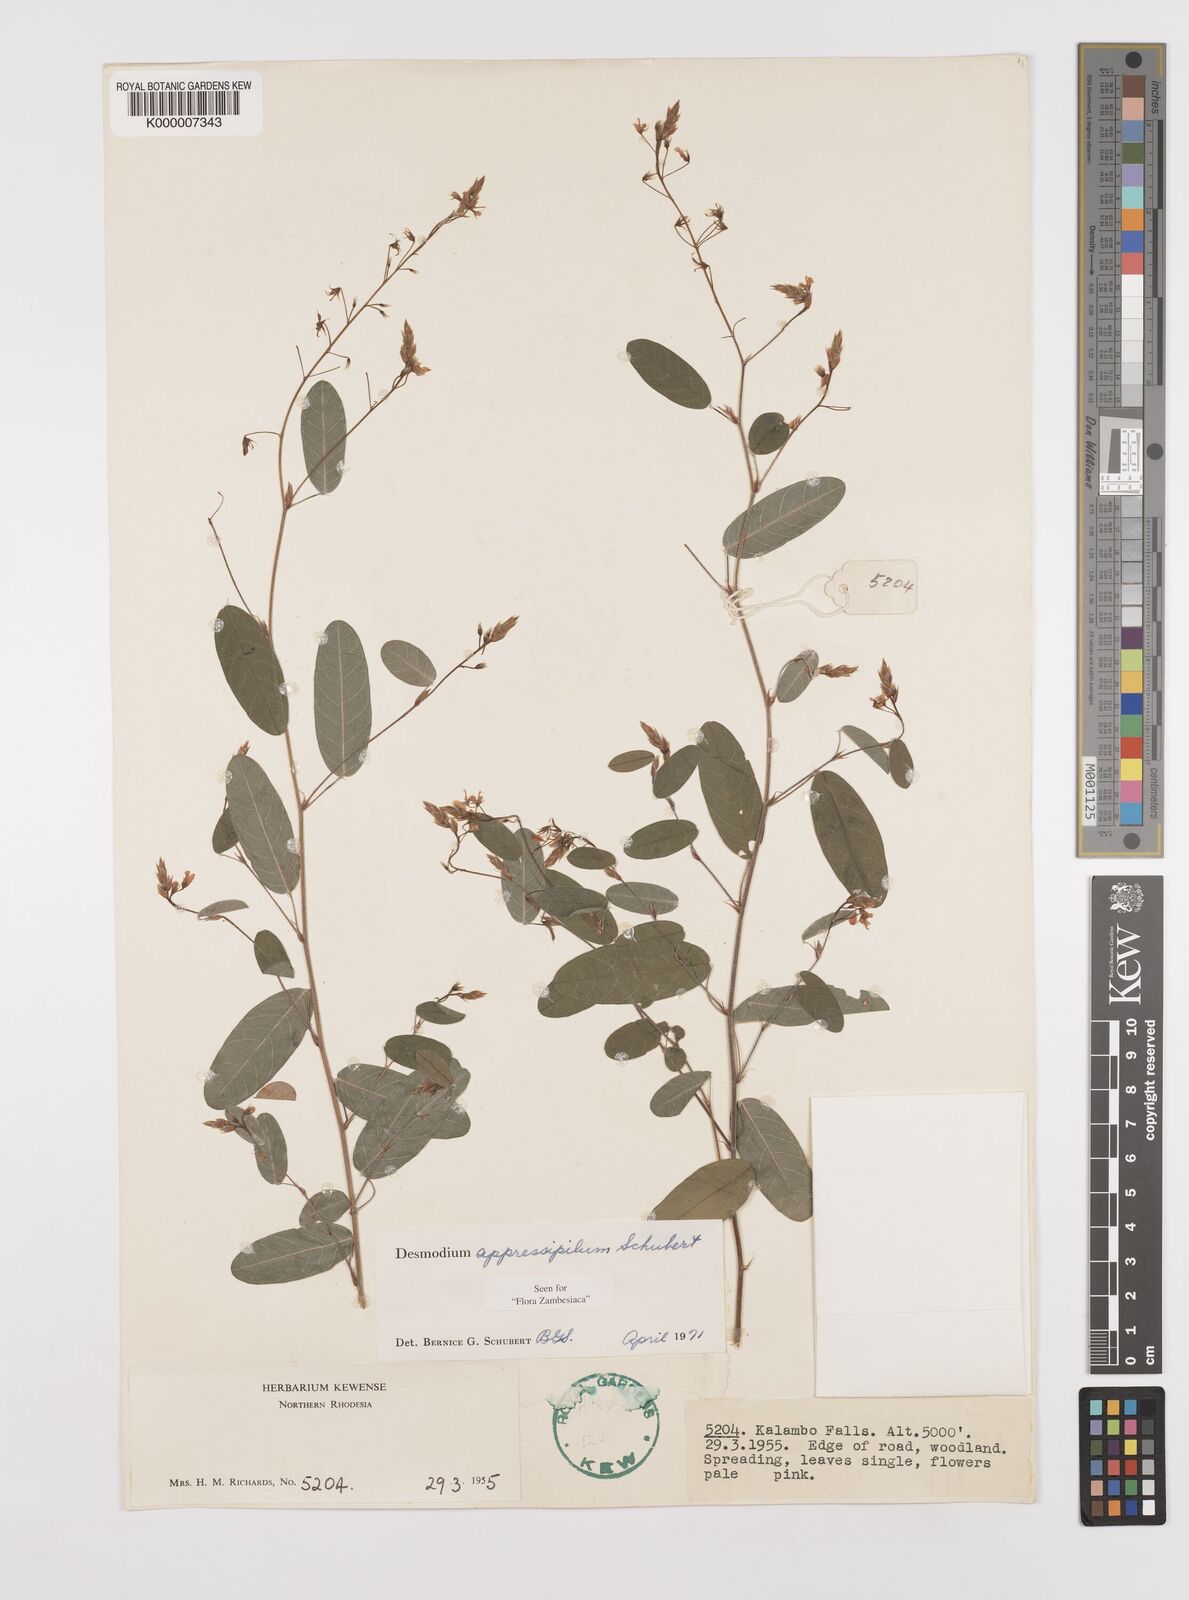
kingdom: Plantae
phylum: Tracheophyta
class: Magnoliopsida
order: Fabales
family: Fabaceae
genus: Grona
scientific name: Grona appressipila
